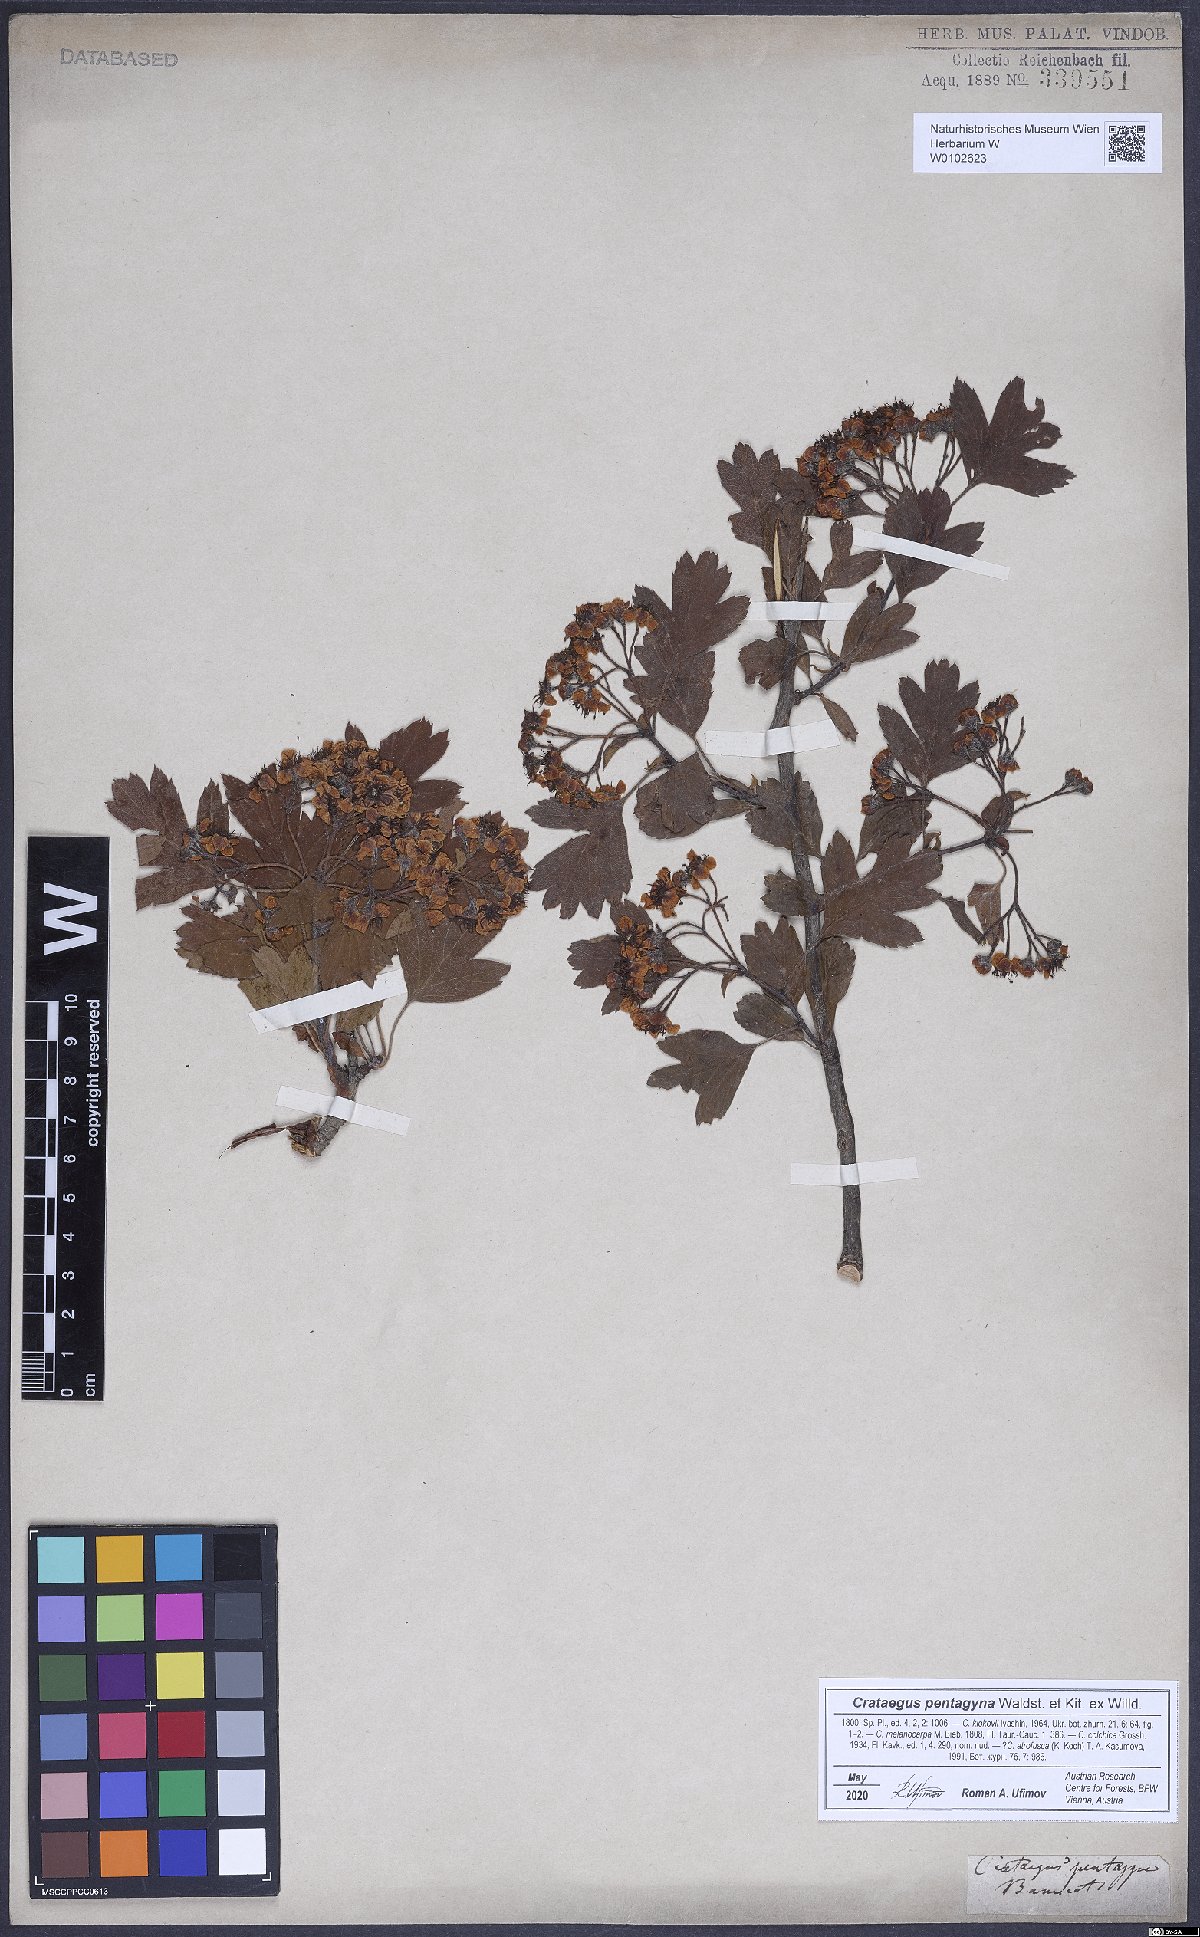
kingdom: Plantae
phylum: Tracheophyta
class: Magnoliopsida
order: Rosales
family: Rosaceae
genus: Crataegus
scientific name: Crataegus pentagyna
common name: Small-flowered black hawthorn
